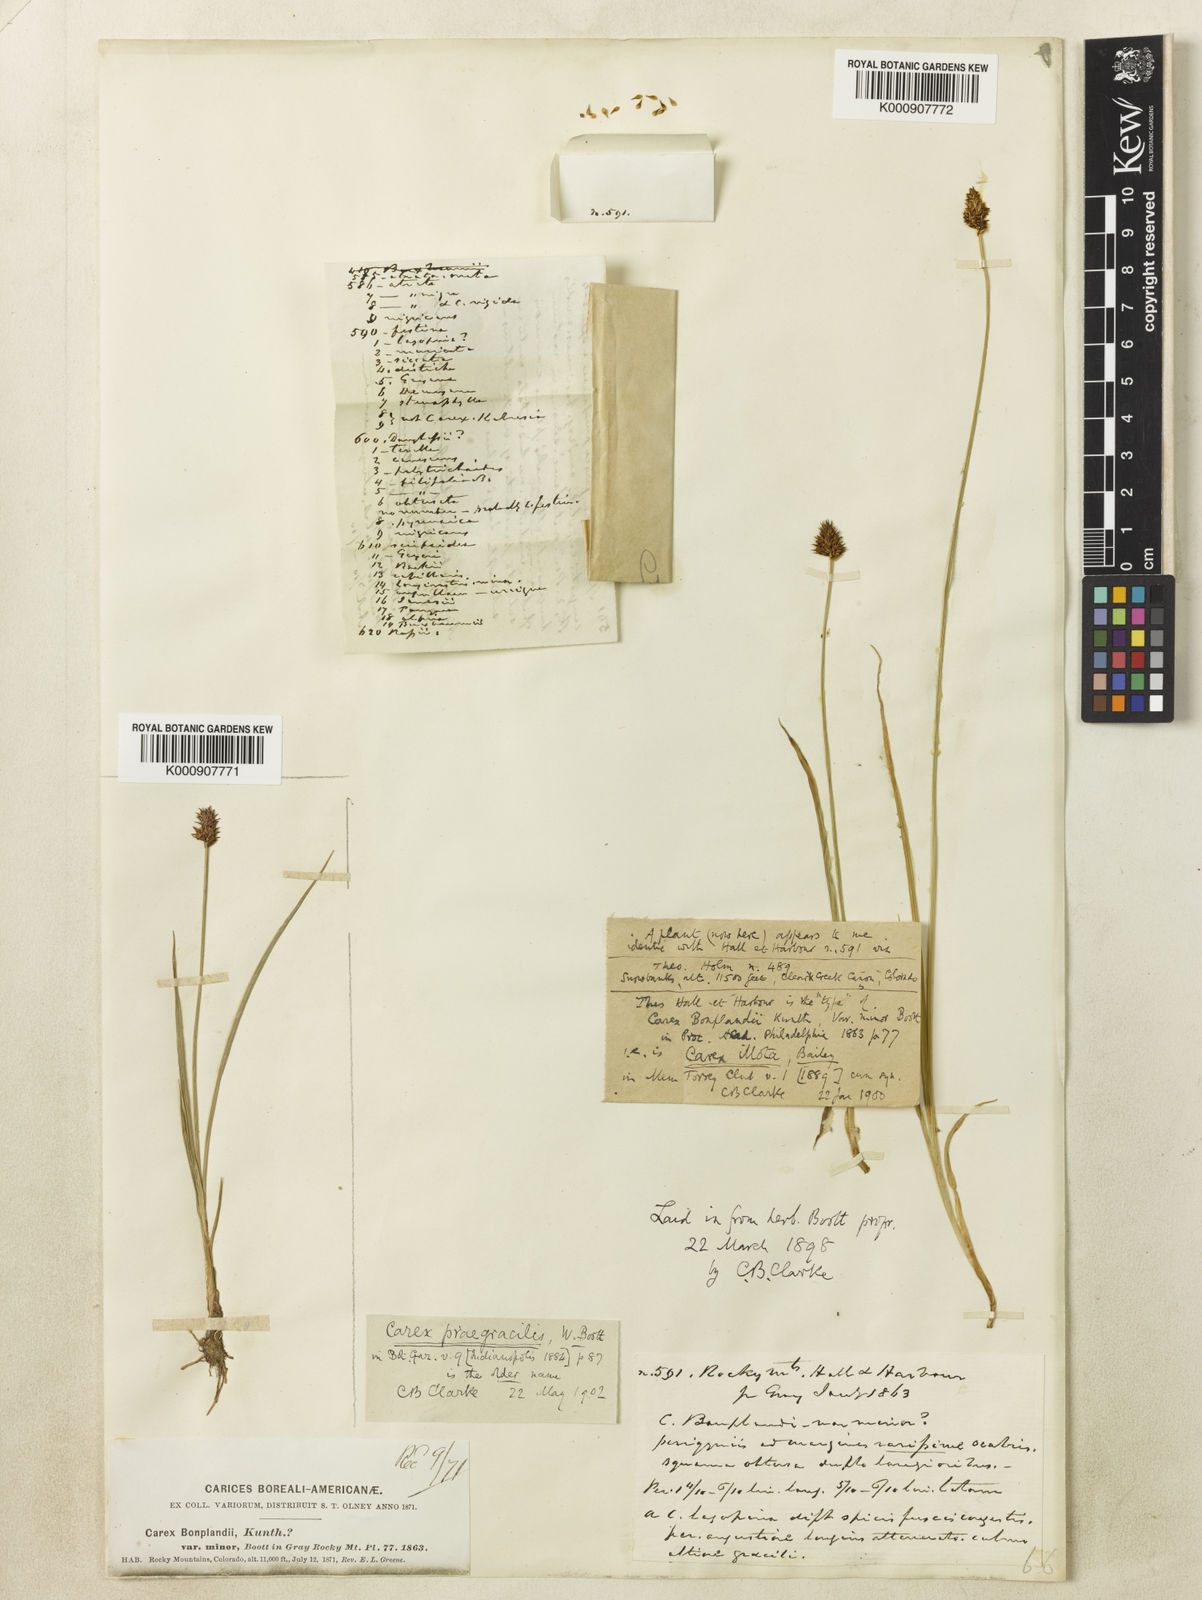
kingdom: Plantae
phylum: Tracheophyta
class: Liliopsida
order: Poales
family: Cyperaceae
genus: Carex
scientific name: Carex illota
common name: Sheep sedge
